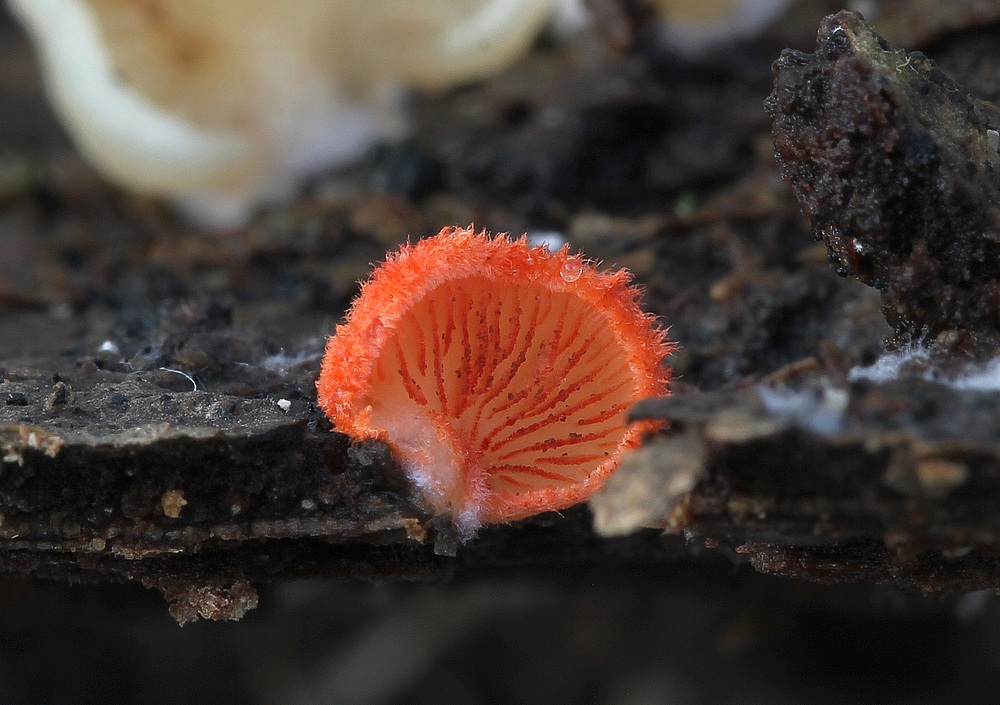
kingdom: Fungi
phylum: Basidiomycota
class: Agaricomycetes
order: Agaricales
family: Crepidotaceae
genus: Crepidotus
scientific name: Crepidotus cinnabarinus
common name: cinnober-muslingesvamp
